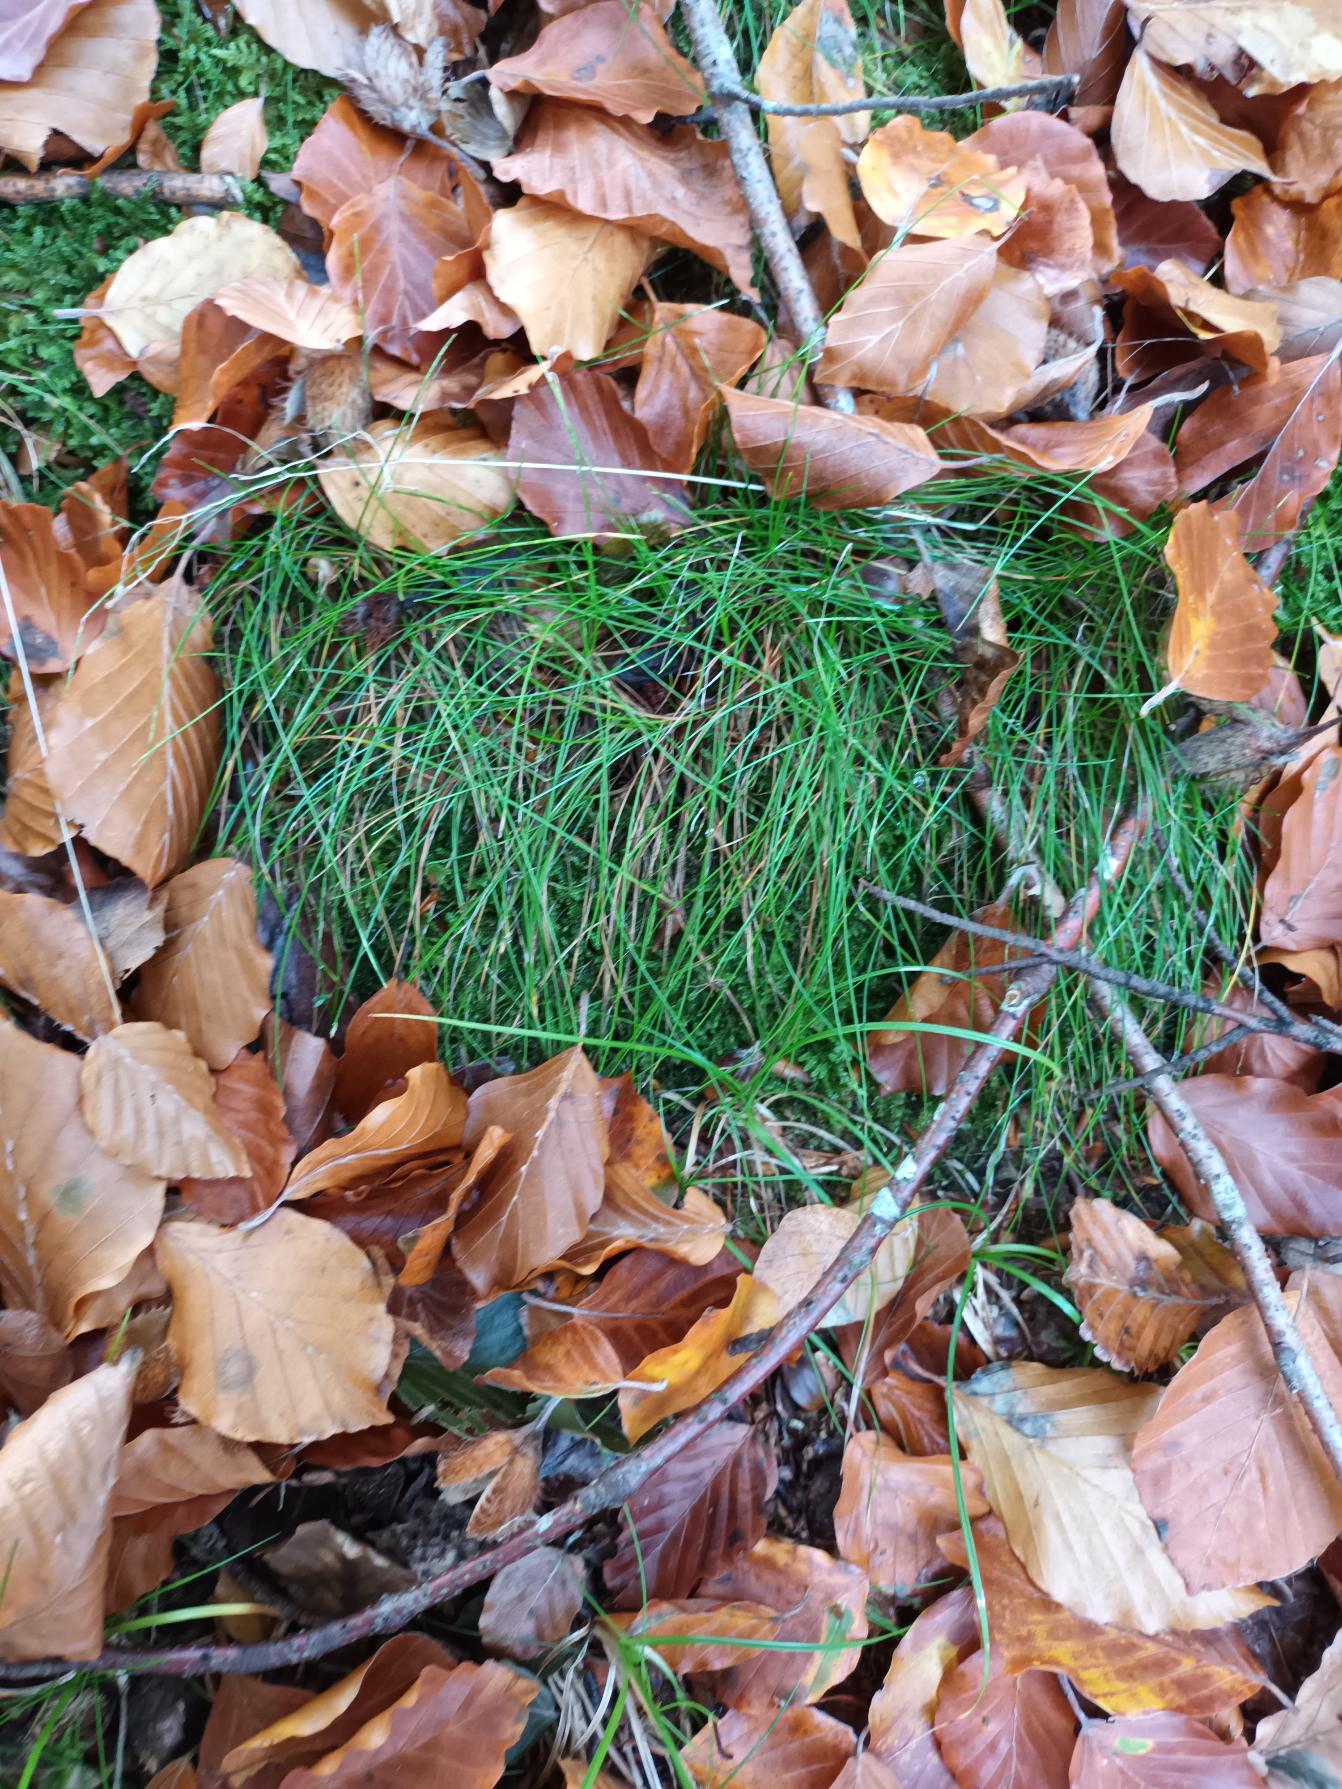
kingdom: Plantae
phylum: Tracheophyta
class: Liliopsida
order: Poales
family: Poaceae
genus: Avenella
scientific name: Avenella flexuosa
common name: Bølget bunke
